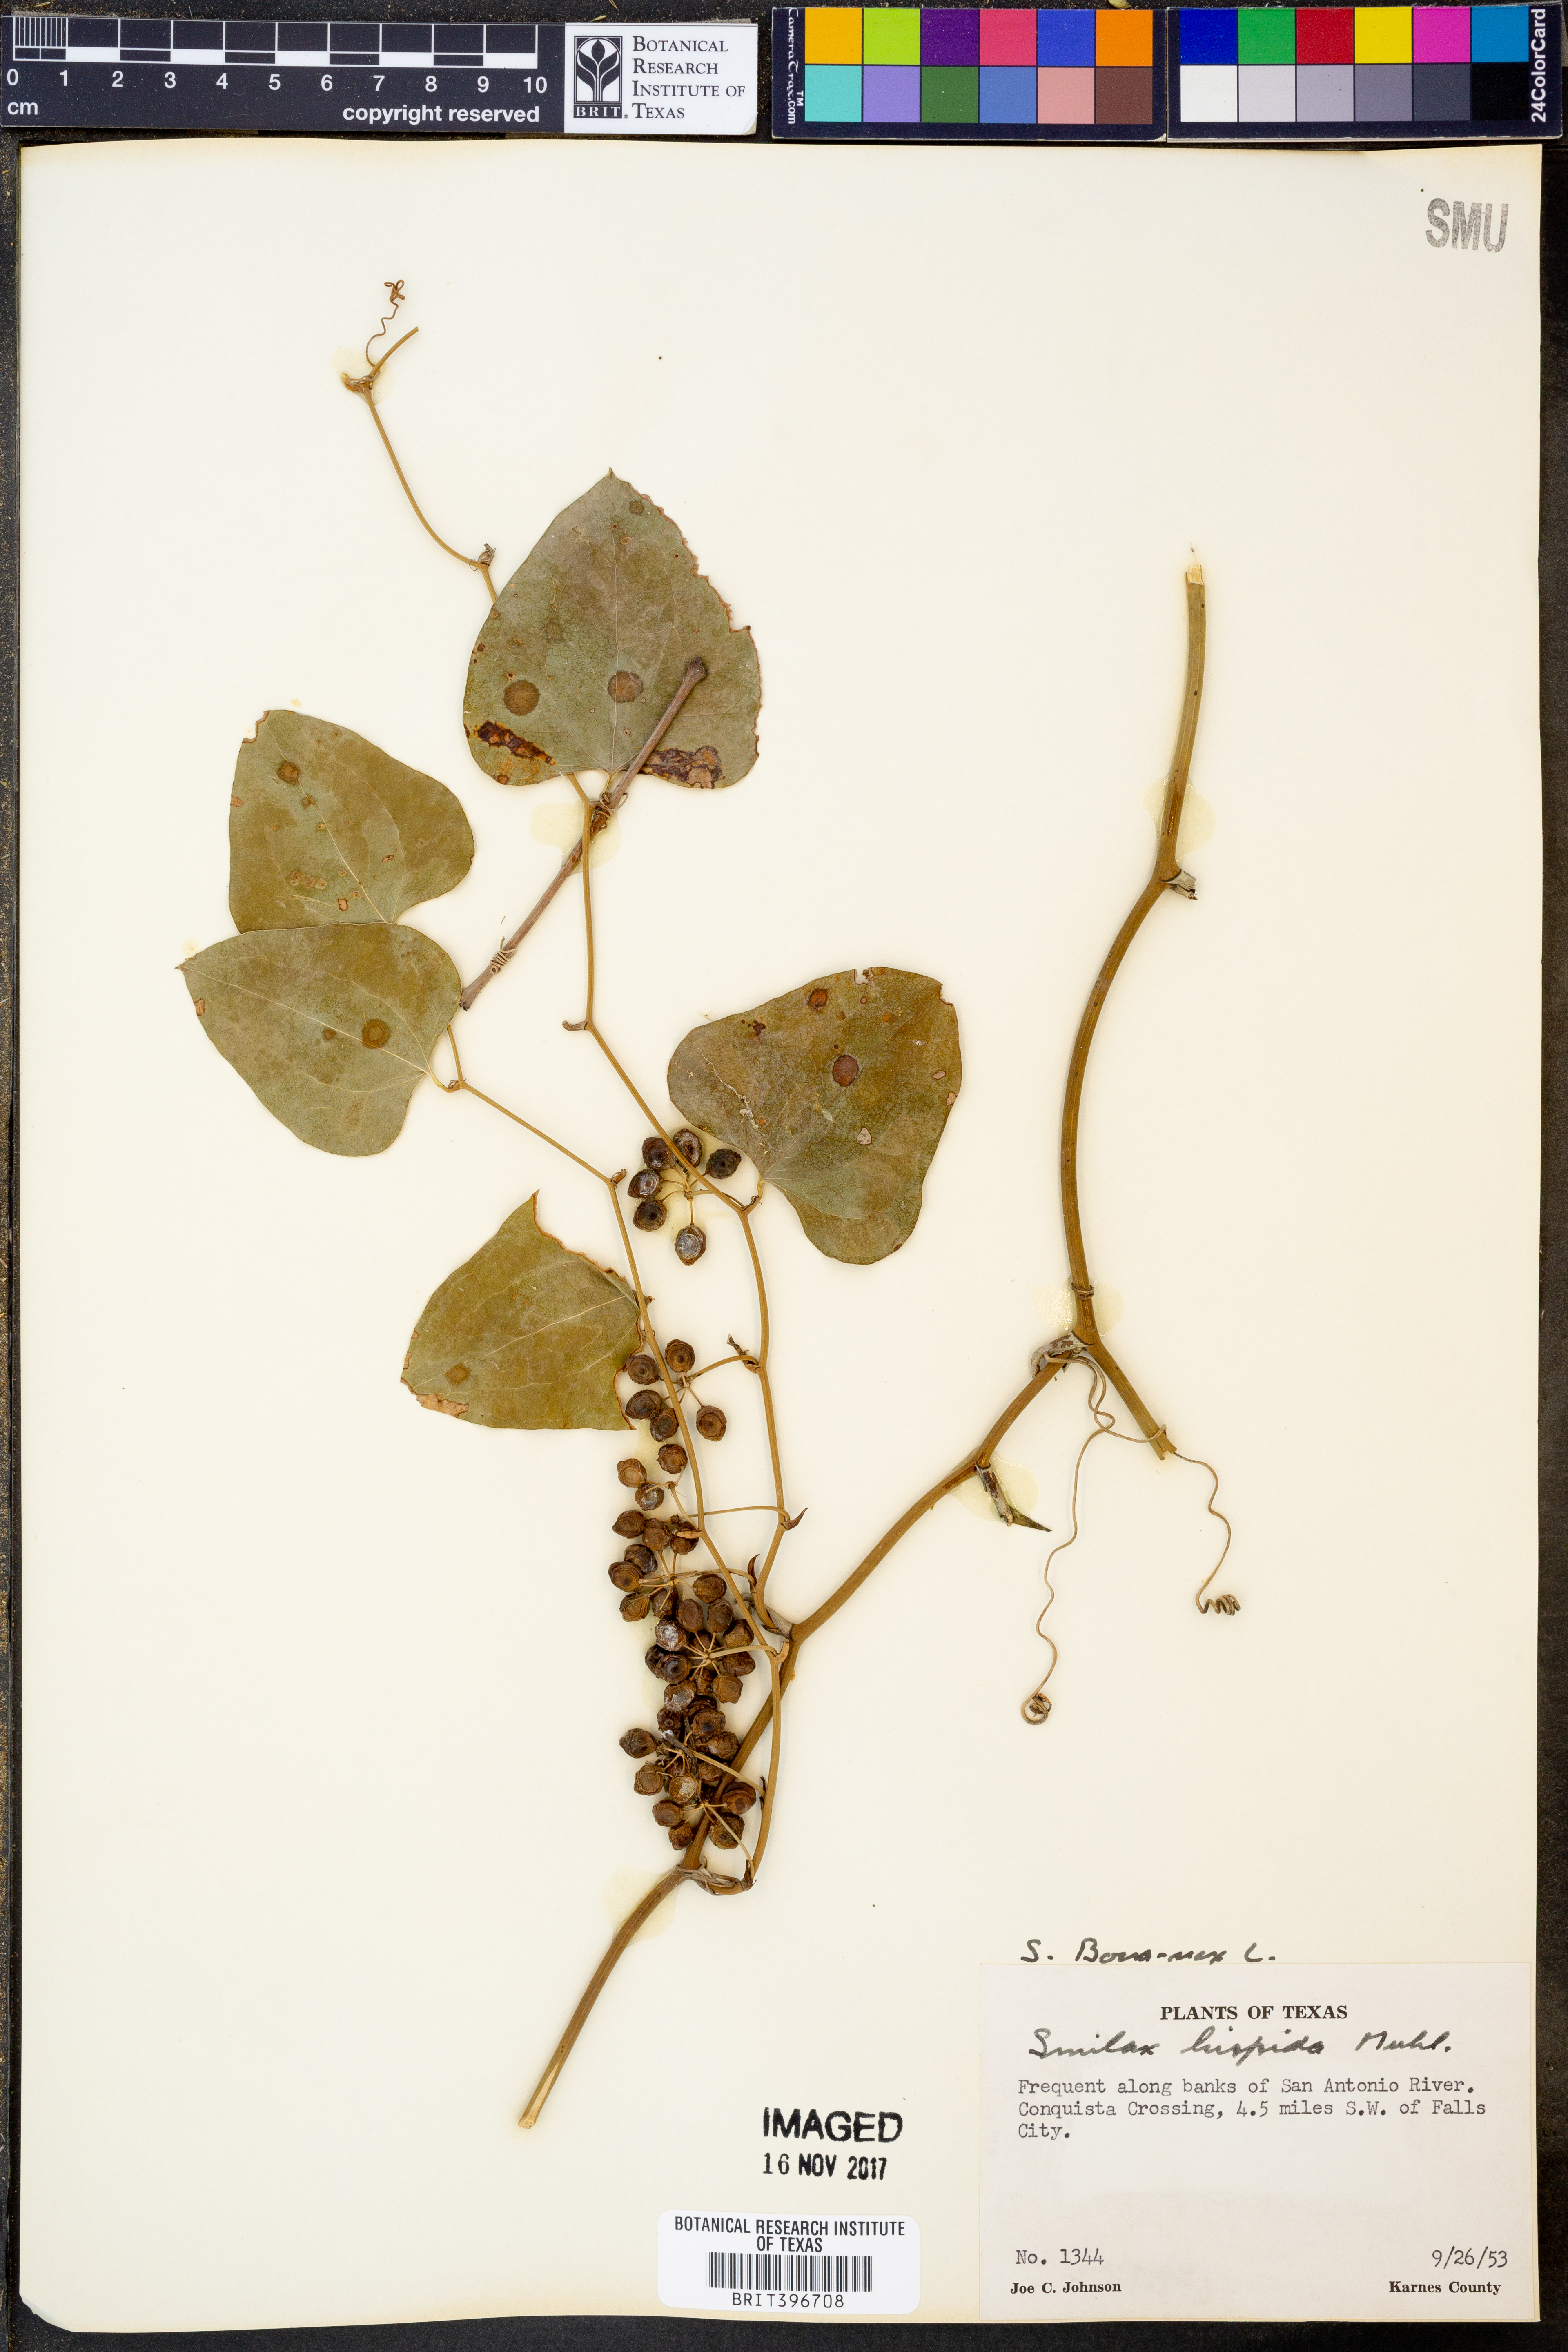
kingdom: Plantae
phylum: Tracheophyta
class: Liliopsida
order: Liliales
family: Smilacaceae
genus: Smilax
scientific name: Smilax bona-nox
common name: Catbrier
